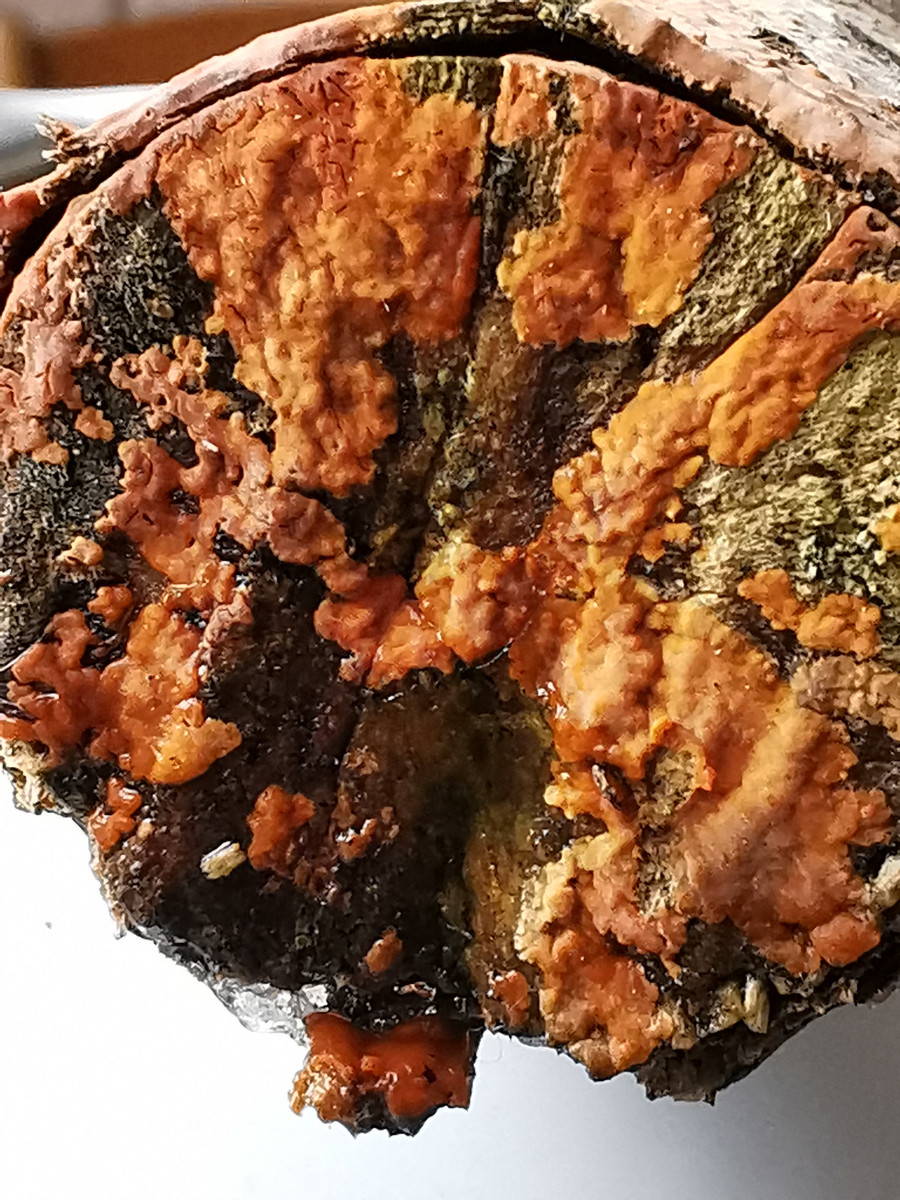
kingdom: Fungi
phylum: Basidiomycota
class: Agaricomycetes
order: Russulales
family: Peniophoraceae
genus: Peniophora
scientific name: Peniophora incarnata
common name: laksefarvet voksskind
